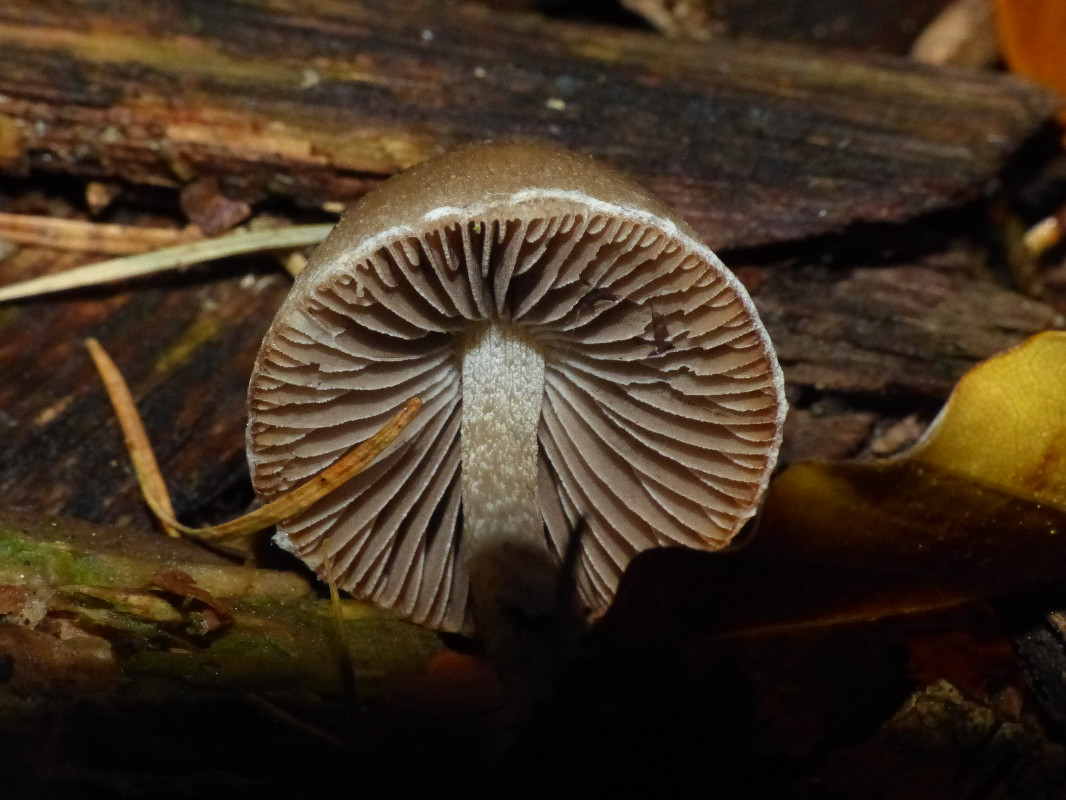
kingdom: Fungi
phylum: Basidiomycota
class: Agaricomycetes
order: Agaricales
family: Psathyrellaceae
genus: Psathyrella
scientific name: Psathyrella
